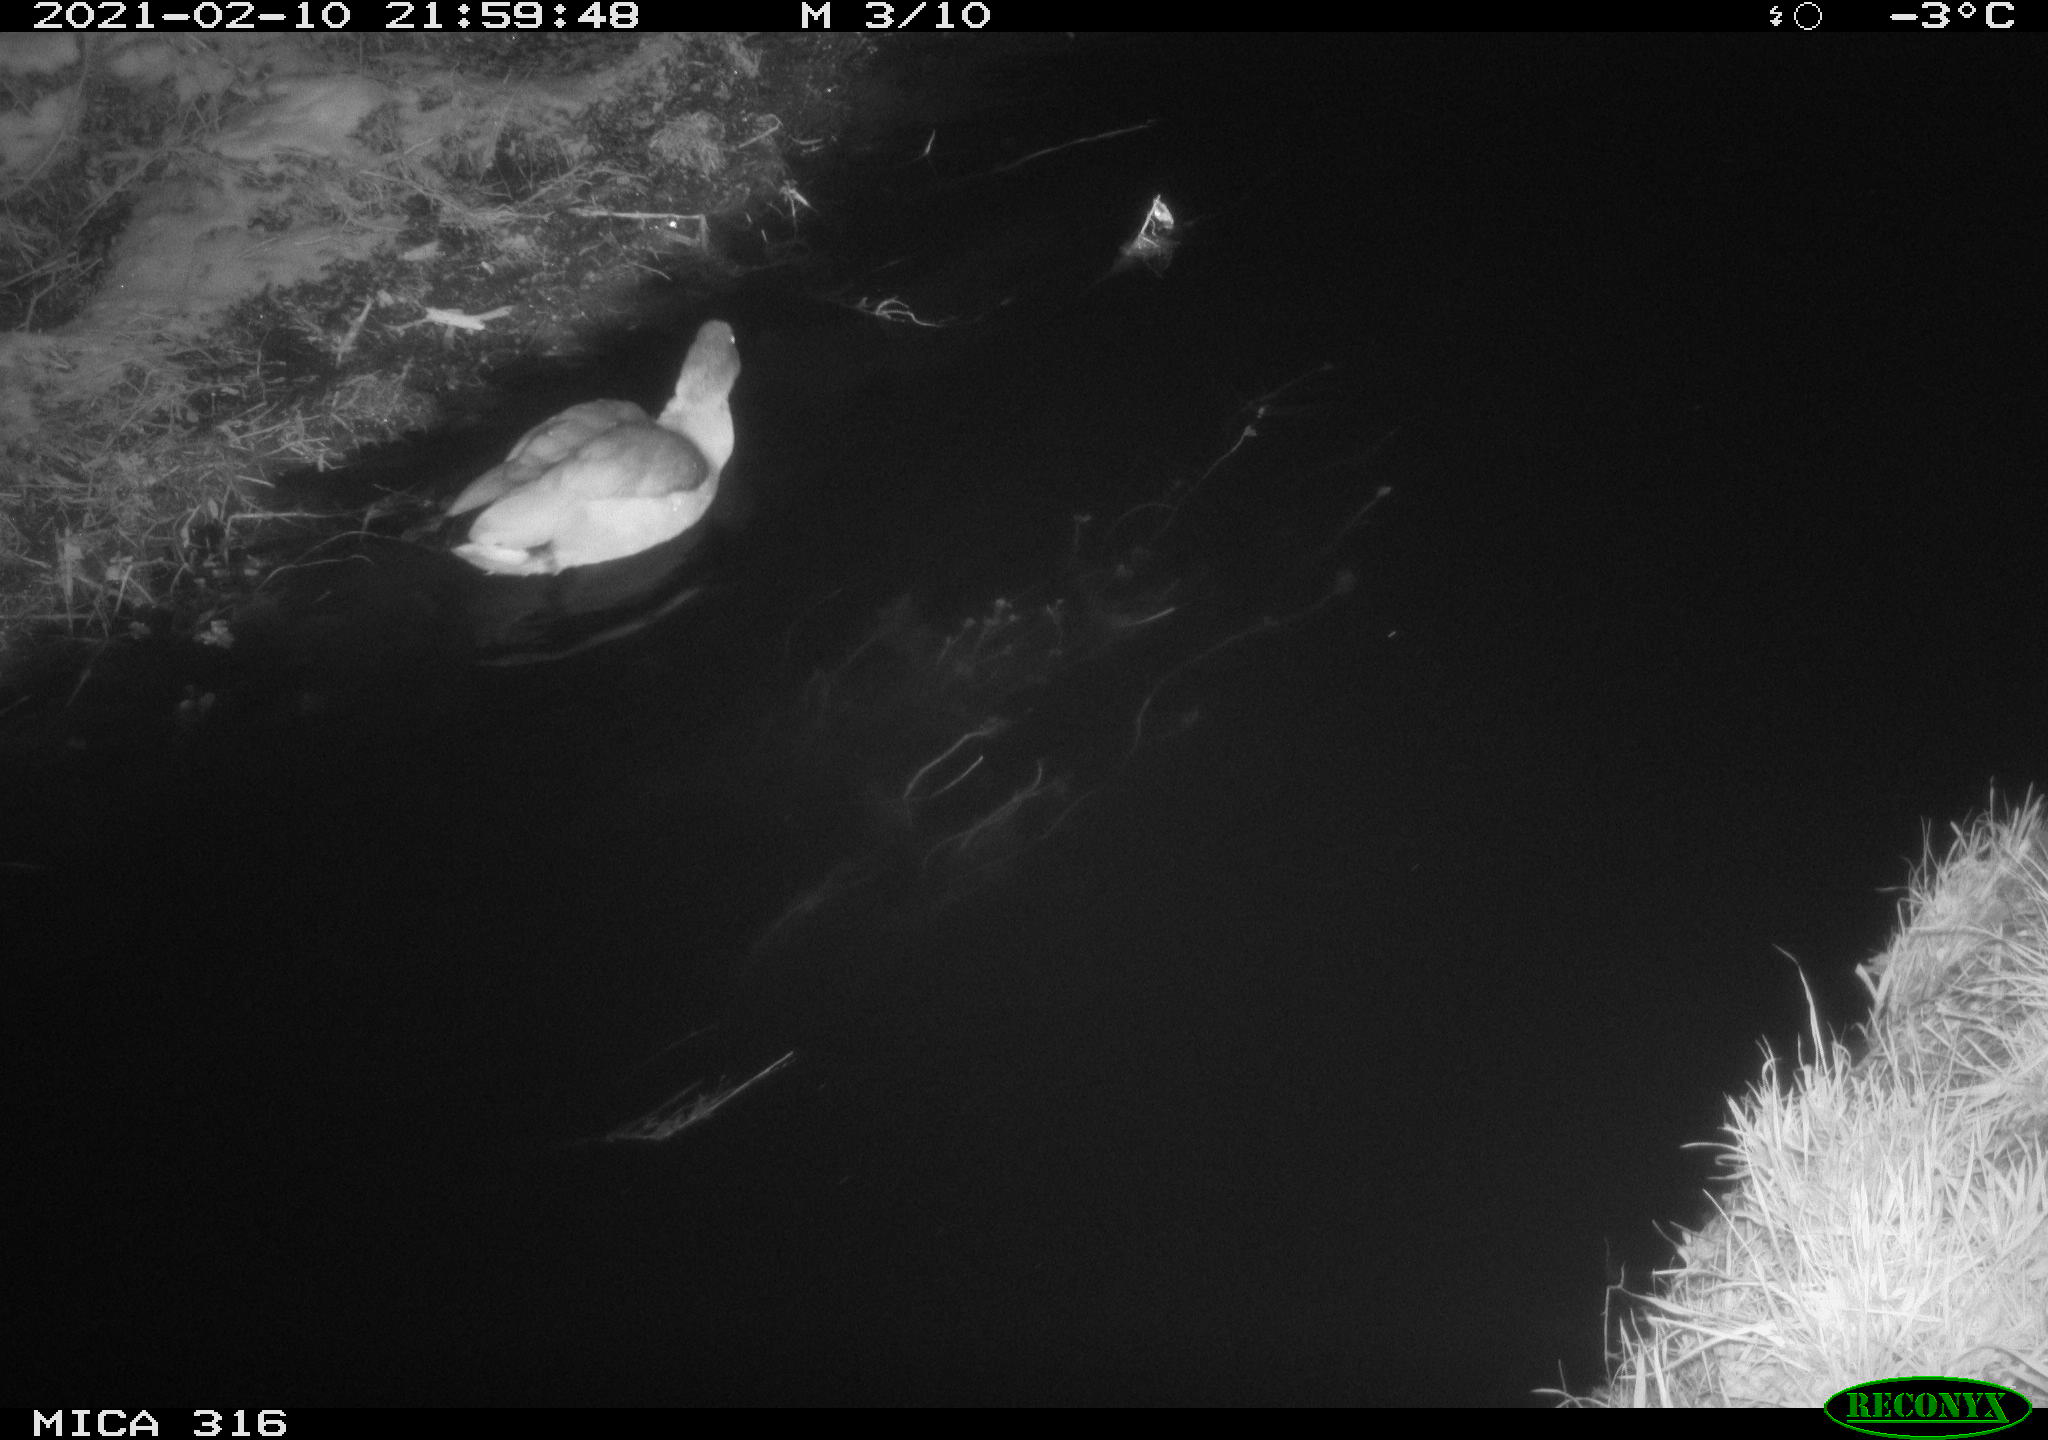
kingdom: Animalia
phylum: Chordata
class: Aves
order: Anseriformes
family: Anatidae
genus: Alopochen
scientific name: Alopochen aegyptiaca
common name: Egyptian goose
